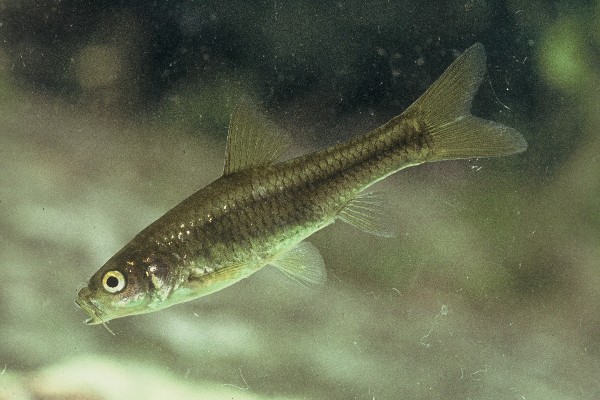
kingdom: Animalia
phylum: Chordata
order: Cypriniformes
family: Cyprinidae
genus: Enteromius
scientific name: Enteromius gurneyi
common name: Redtail barb
